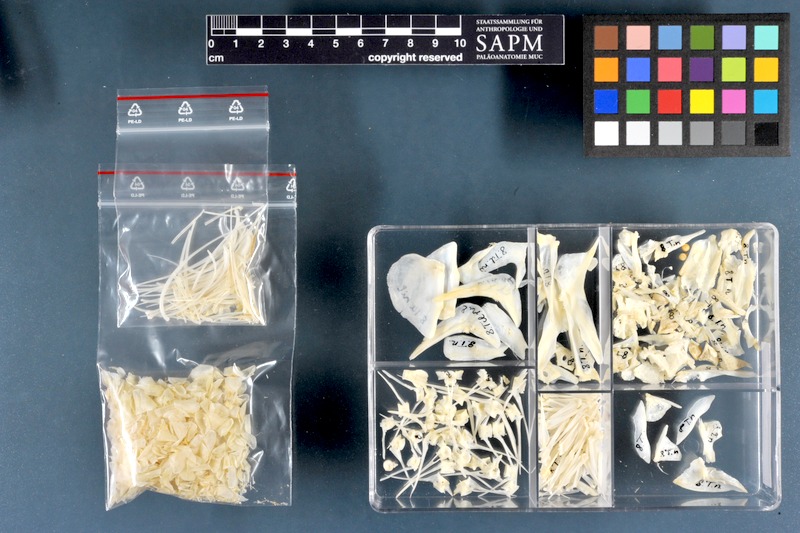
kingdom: Animalia
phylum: Chordata
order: Perciformes
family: Cichlidae
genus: Oreochromis
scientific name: Oreochromis niloticus
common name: Nile tilapia
